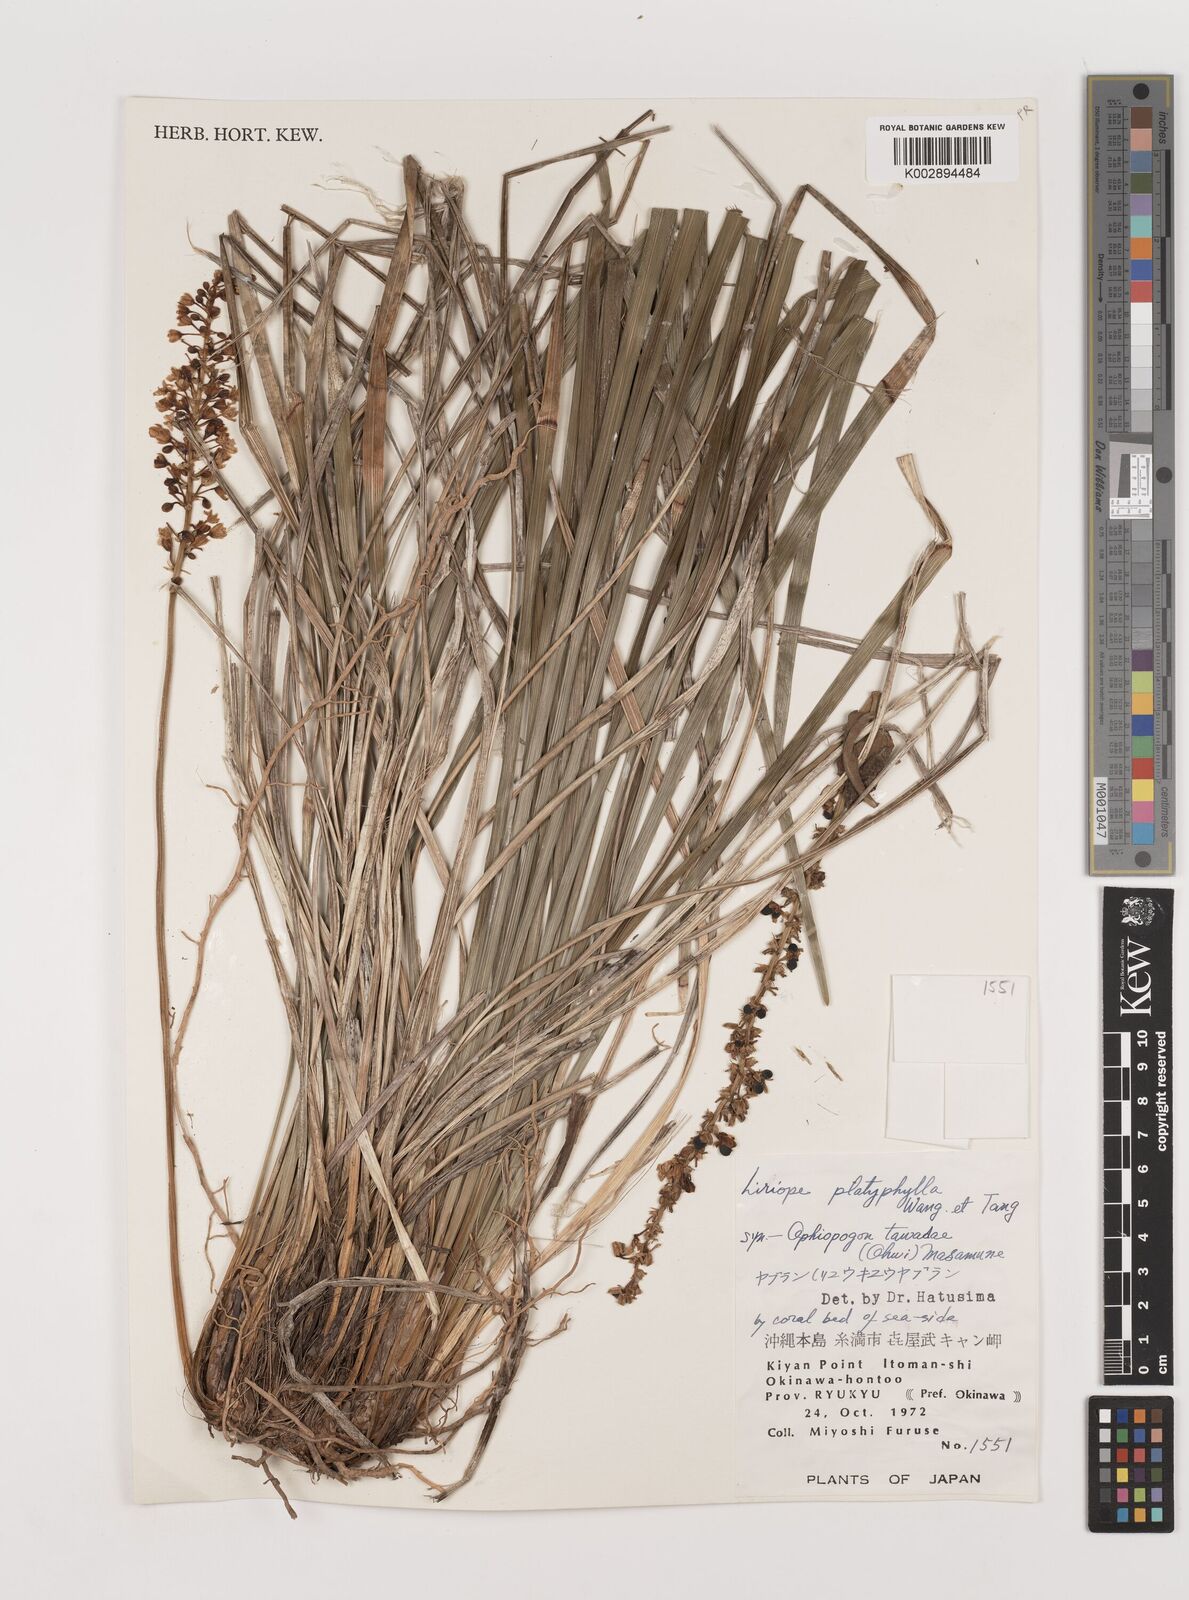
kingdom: Plantae
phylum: Tracheophyta
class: Liliopsida
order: Asparagales
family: Asparagaceae
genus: Liriope
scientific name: Liriope muscari
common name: Big blue lilyturf
